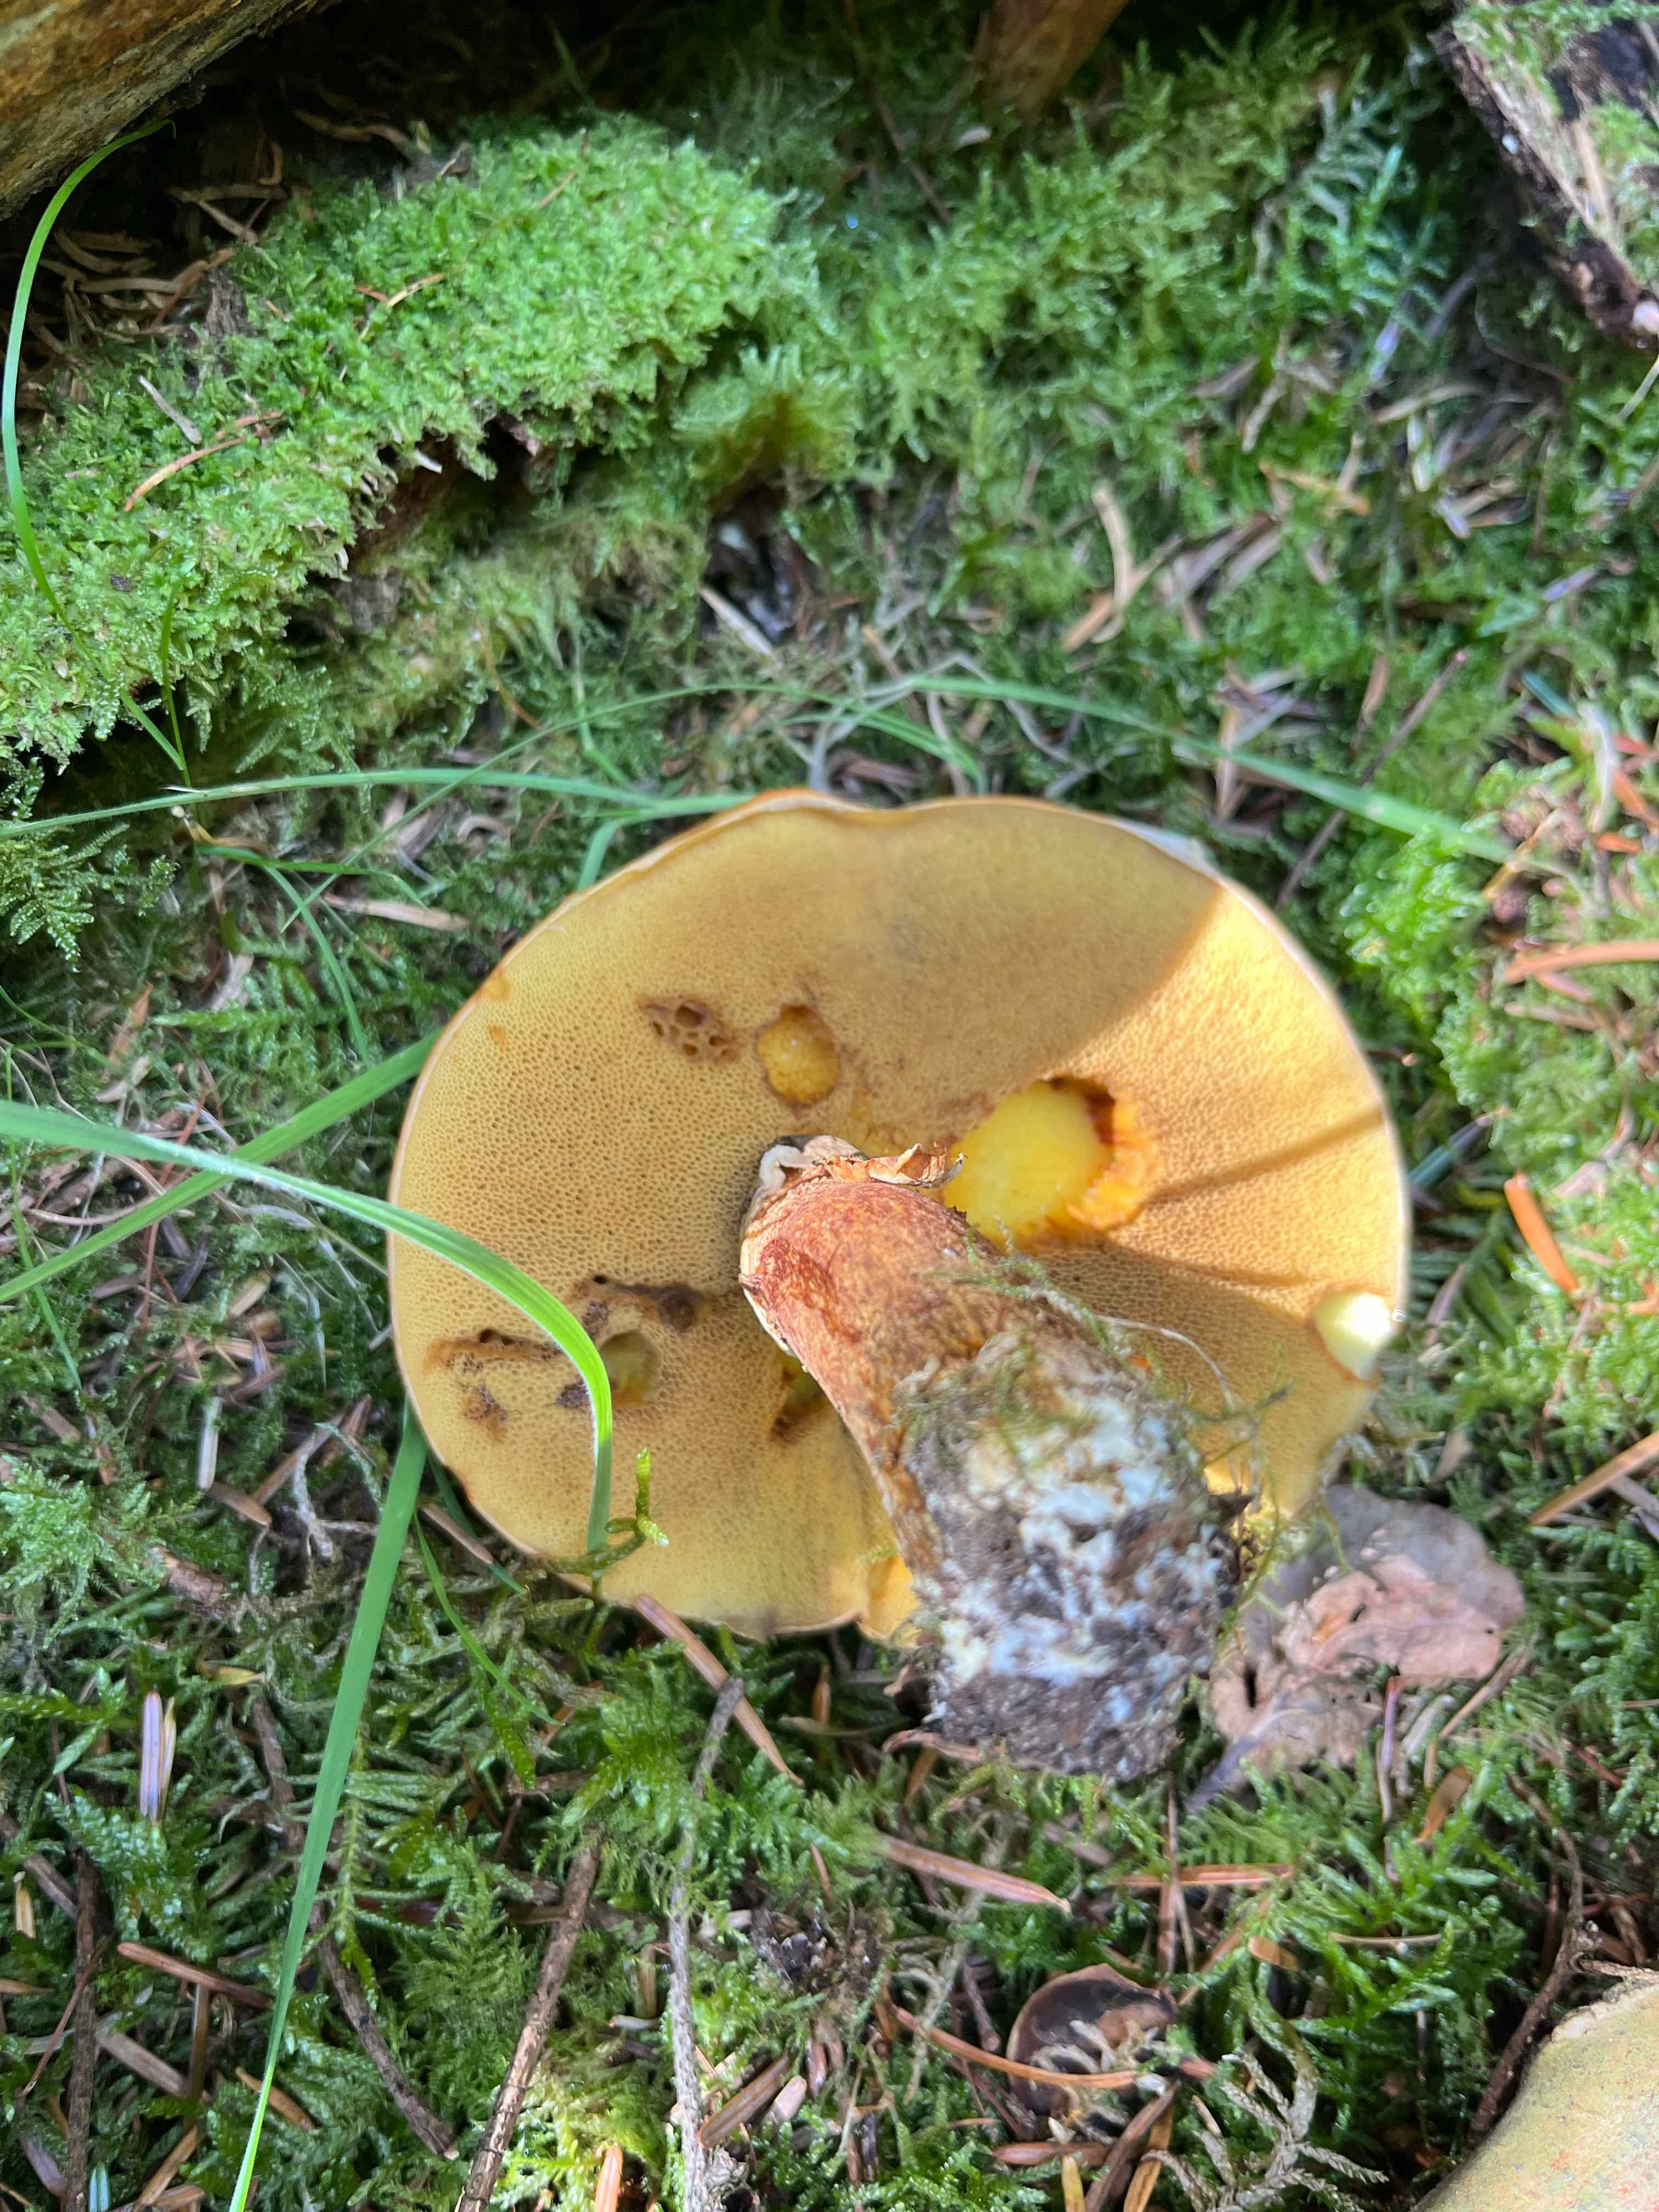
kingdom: Fungi
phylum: Basidiomycota
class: Agaricomycetes
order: Boletales
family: Suillaceae
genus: Suillus
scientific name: Suillus grevillei
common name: lærke-slimrørhat
